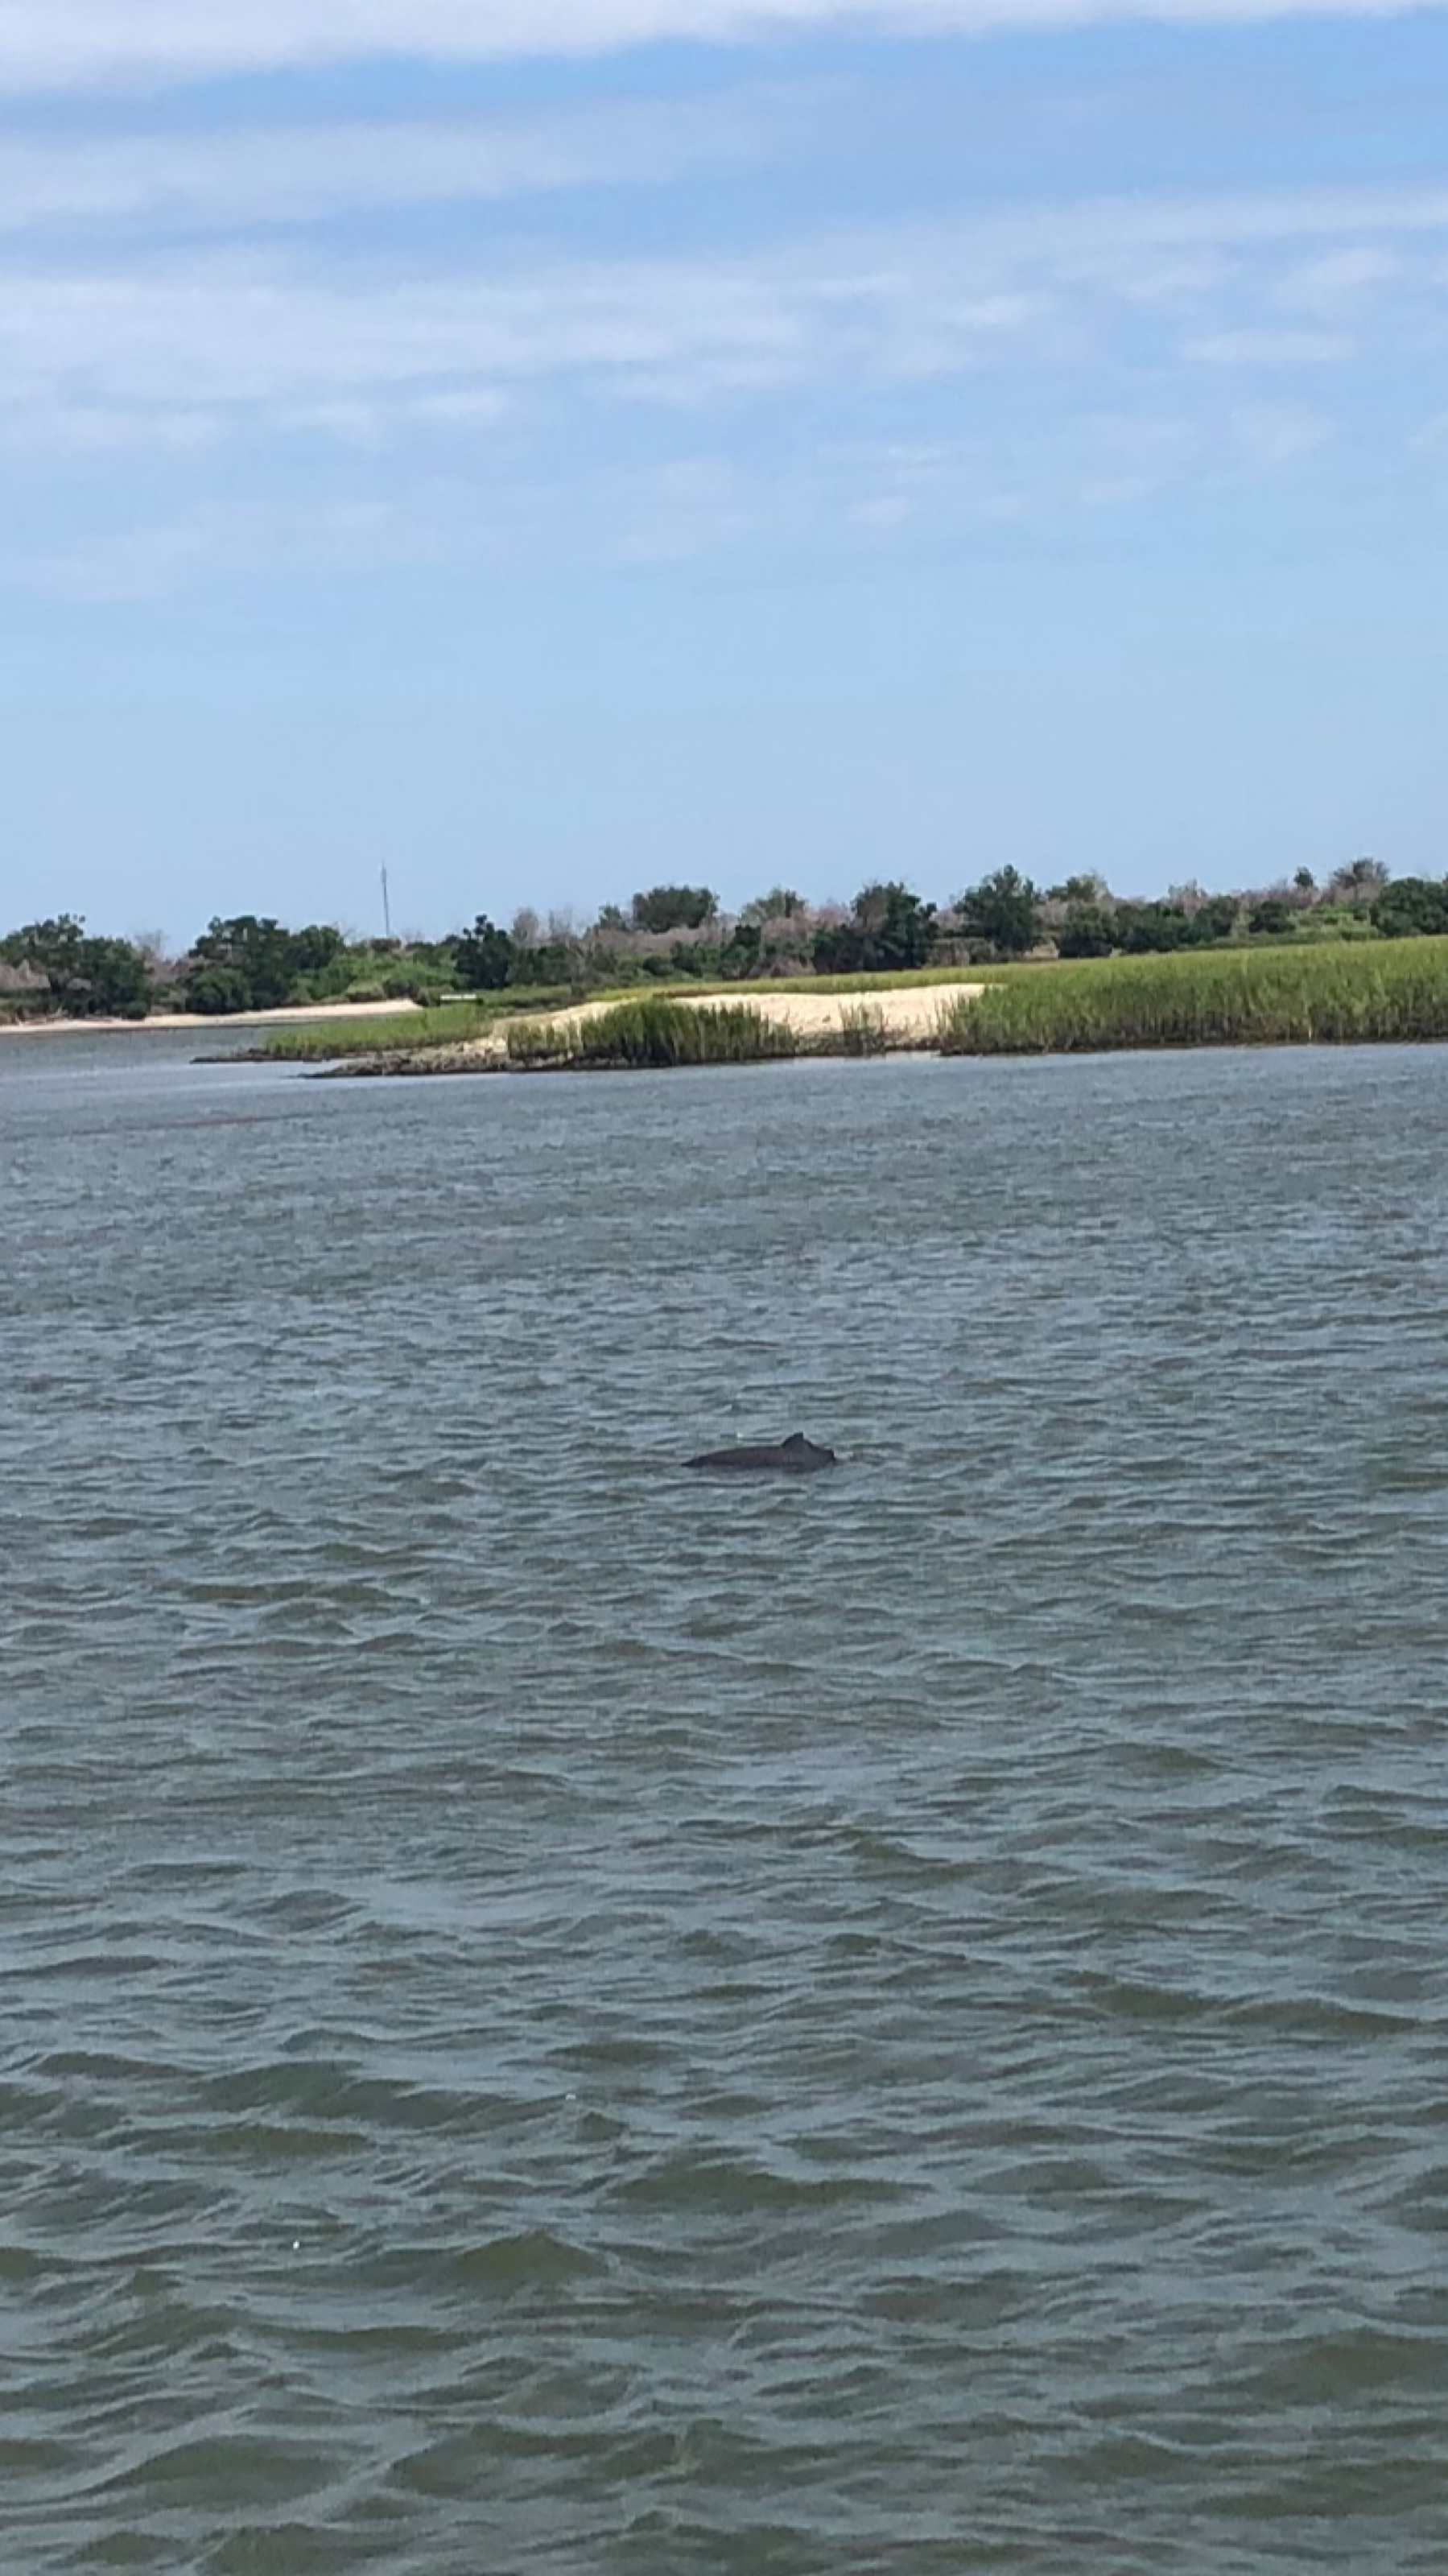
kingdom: Animalia
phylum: Chordata
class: Mammalia
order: Cetacea
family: Delphinidae
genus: Tursiops
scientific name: Tursiops truncatus
